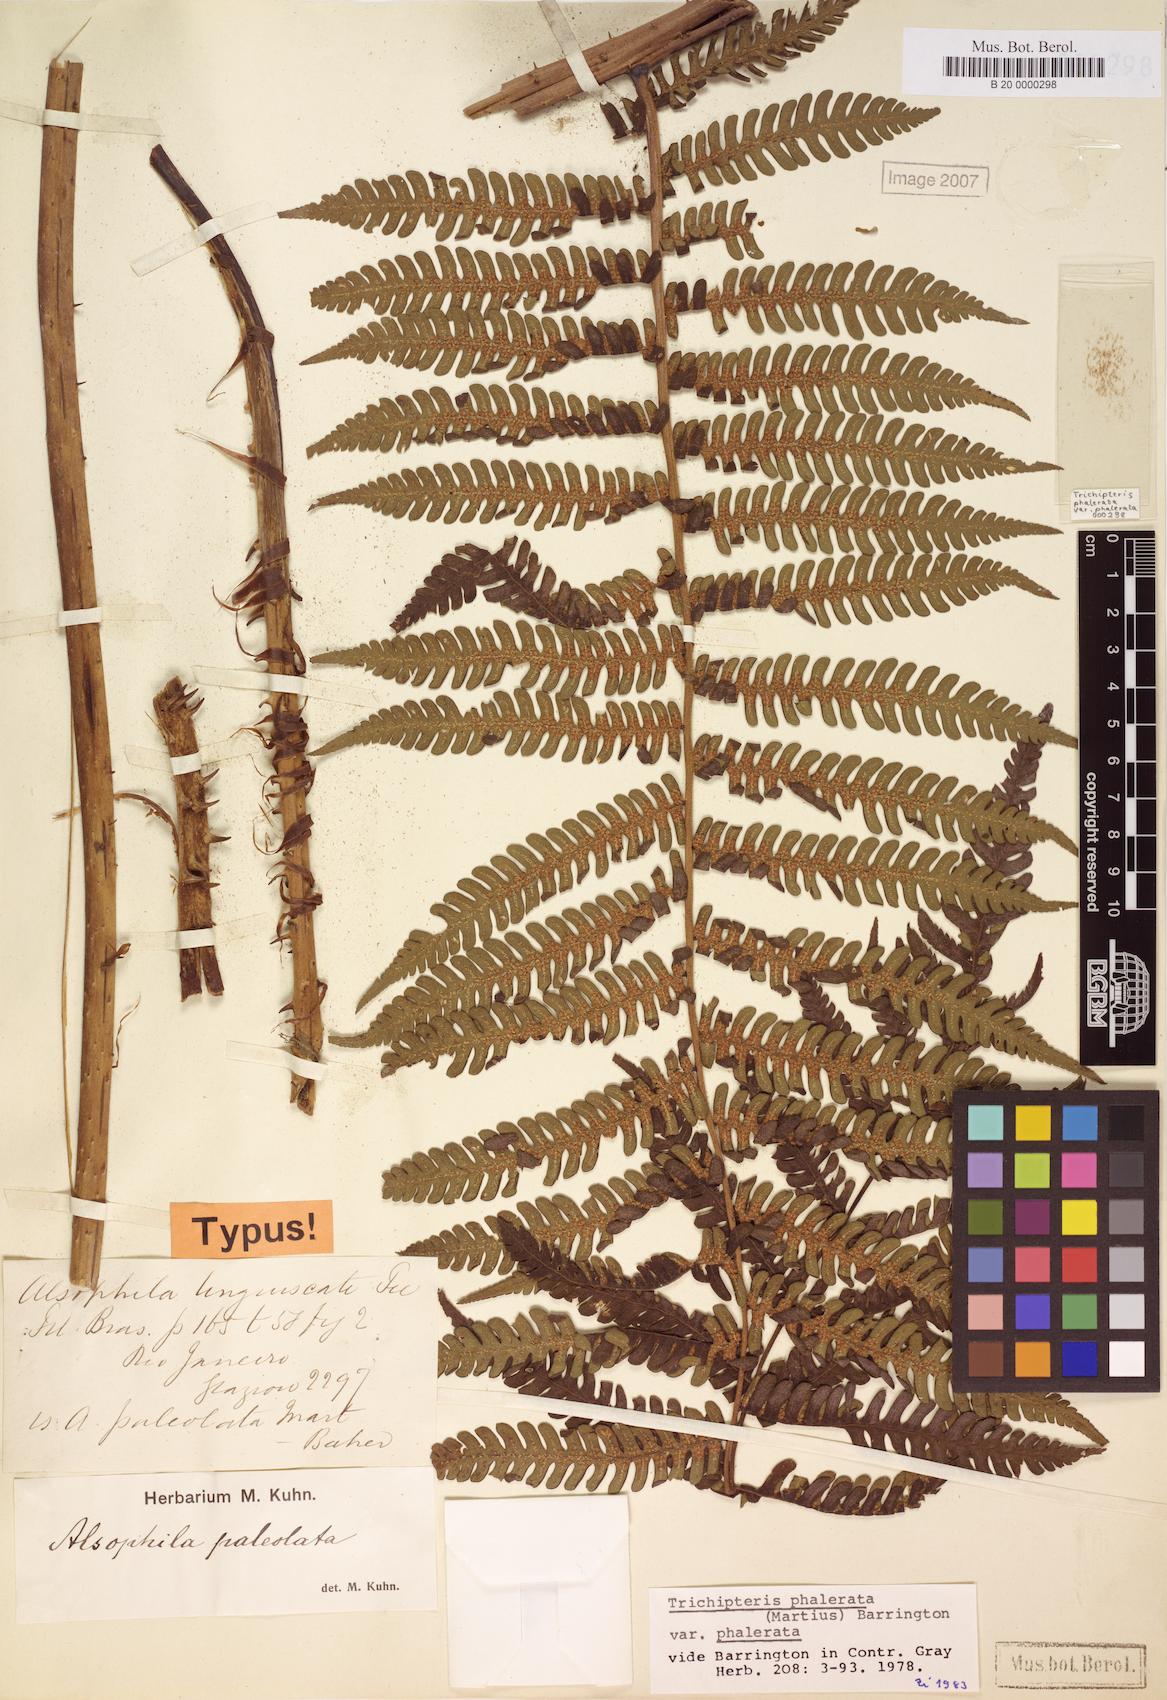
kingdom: Plantae
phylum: Tracheophyta
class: Polypodiopsida
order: Cyatheales
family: Cyatheaceae
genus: Cyathea
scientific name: Cyathea phalerata
